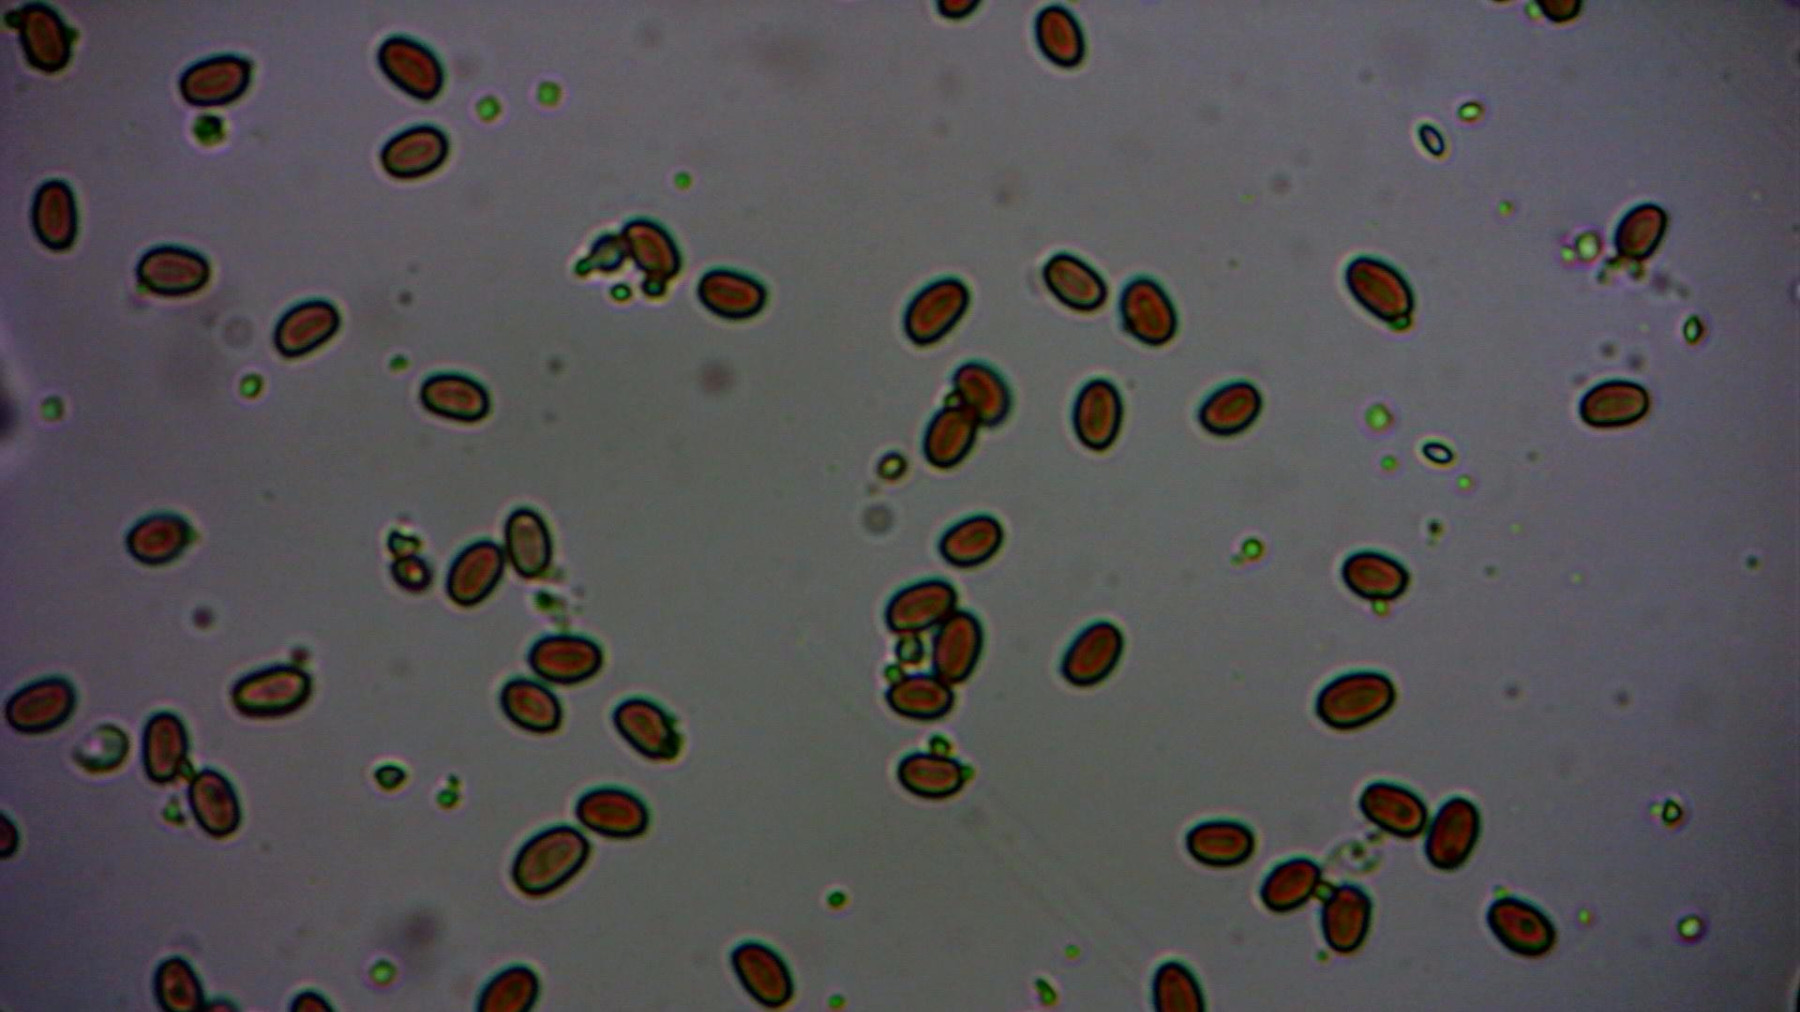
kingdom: Fungi
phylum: Basidiomycota
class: Agaricomycetes
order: Agaricales
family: Psathyrellaceae
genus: Psathyrella
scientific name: Psathyrella piluliformis
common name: lysstokket mørkhat
